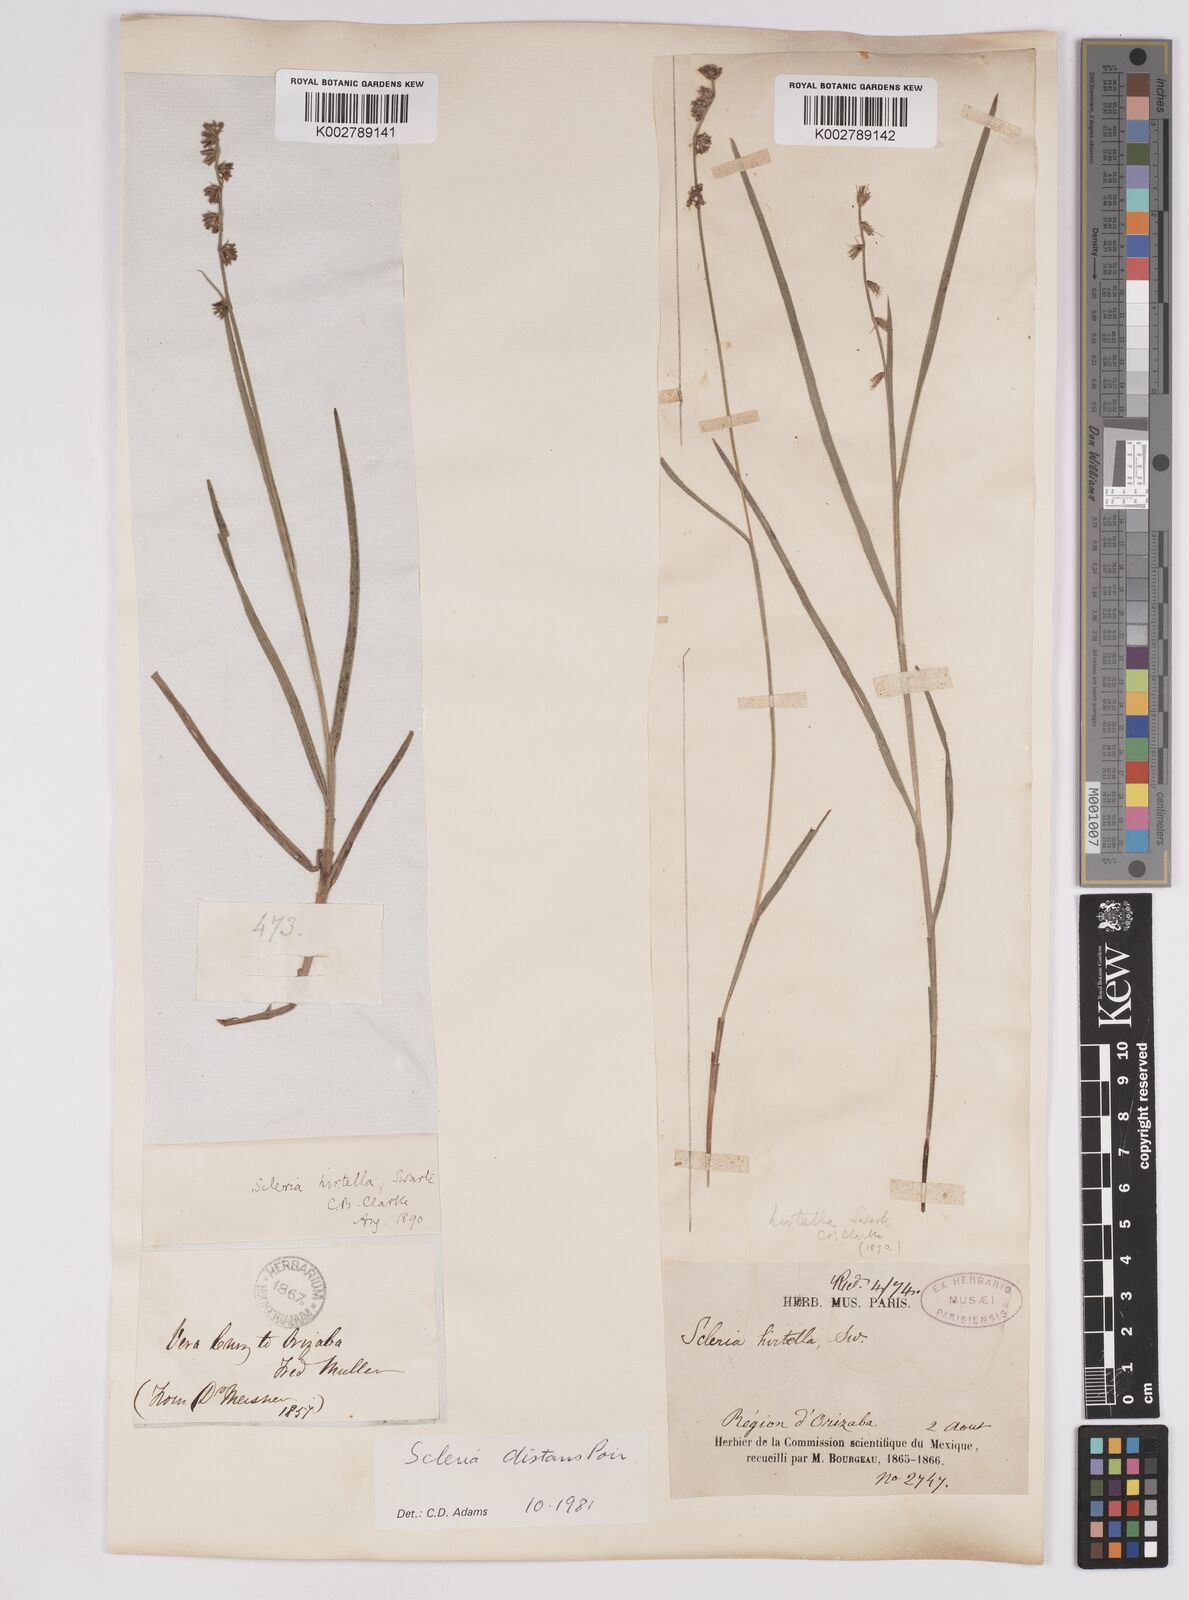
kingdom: Plantae
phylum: Tracheophyta
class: Liliopsida
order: Poales
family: Cyperaceae
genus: Scleria
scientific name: Scleria distans
